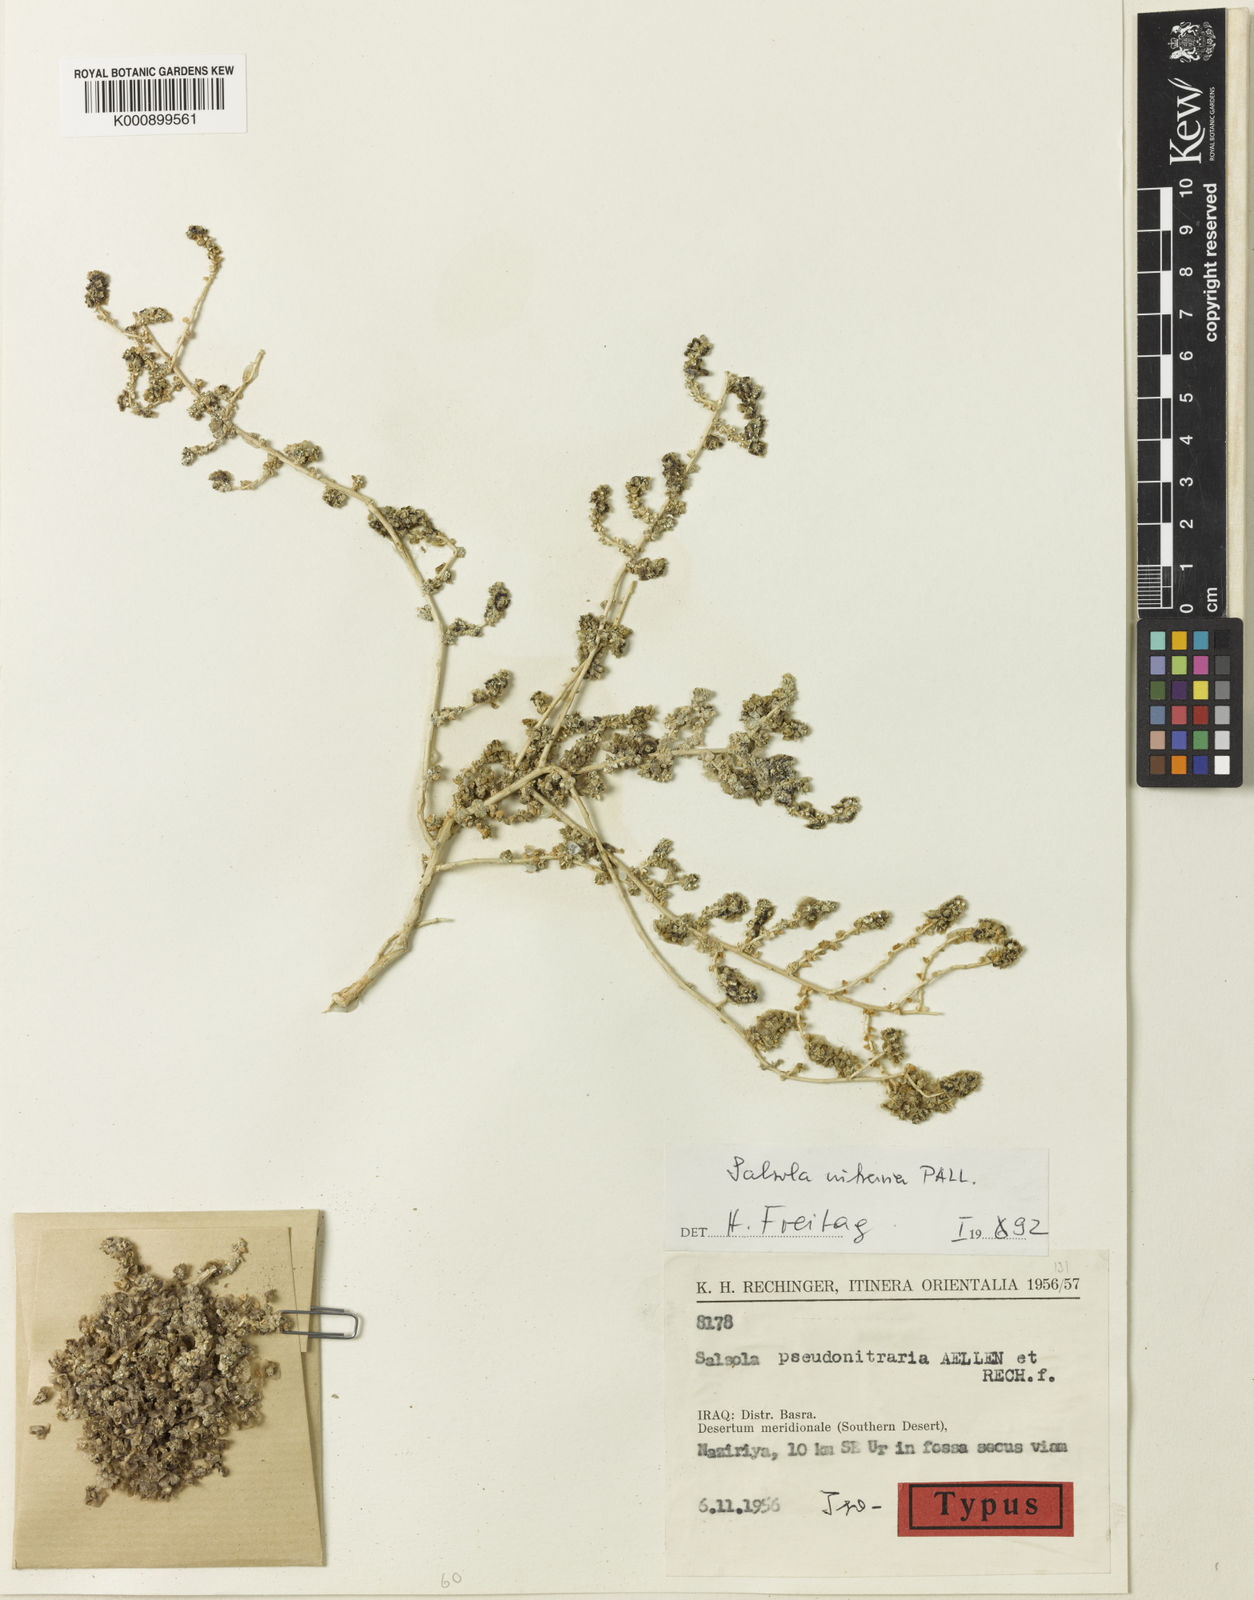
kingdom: Plantae
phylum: Tracheophyta
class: Magnoliopsida
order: Caryophyllales
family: Amaranthaceae
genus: Nitrosalsola
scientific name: Nitrosalsola nitraria
